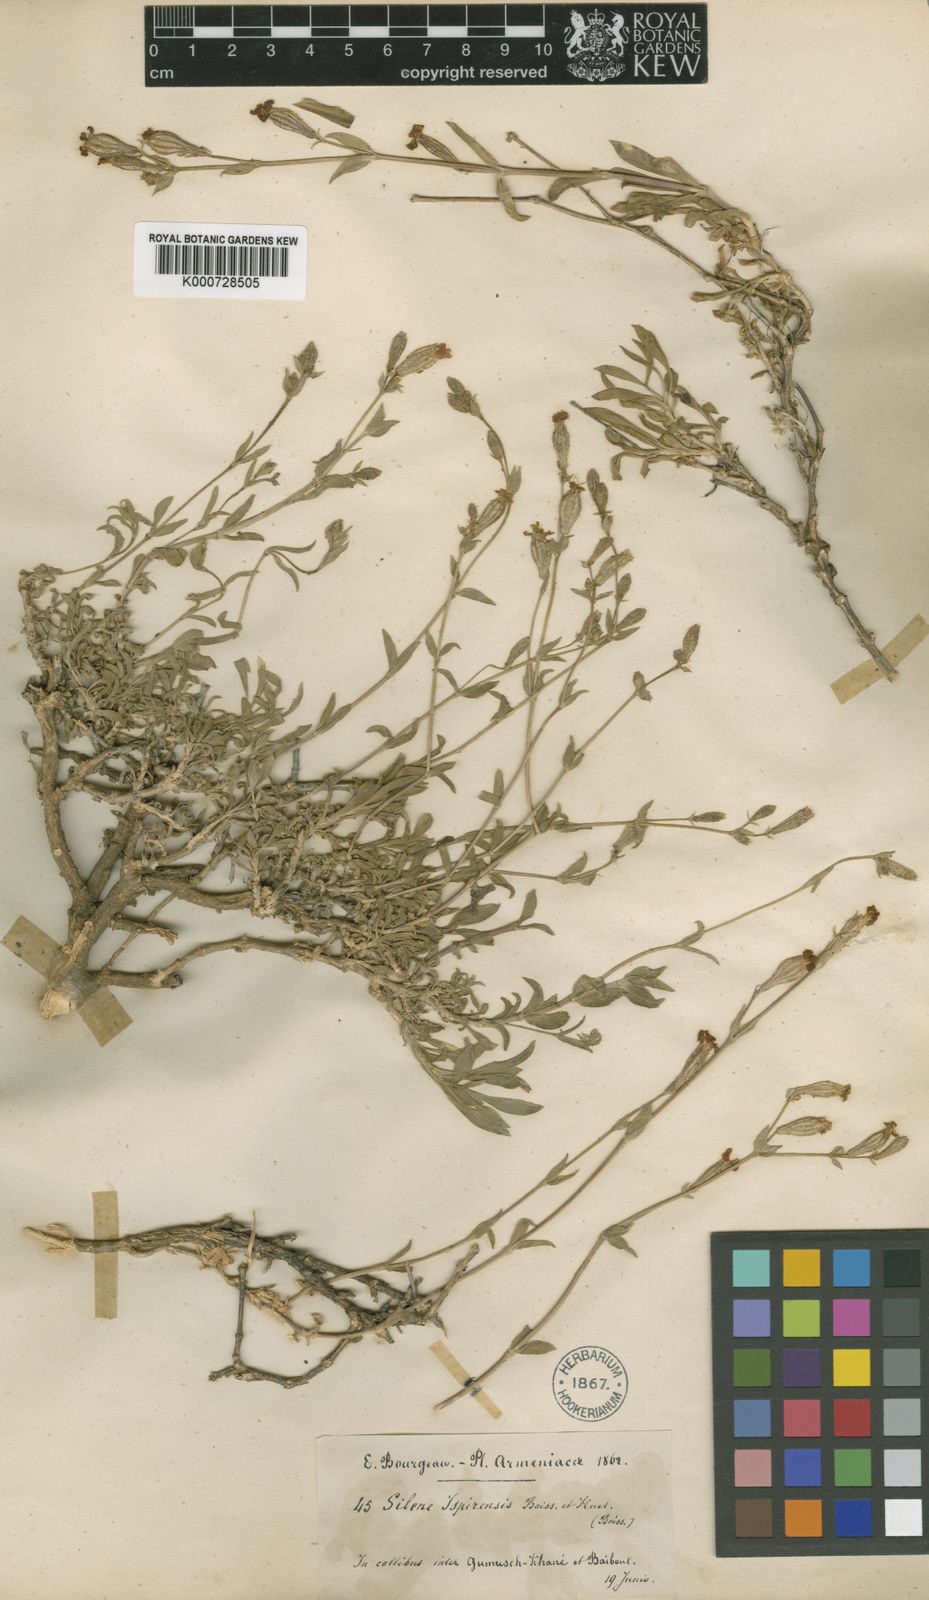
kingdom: Plantae
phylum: Tracheophyta
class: Magnoliopsida
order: Caryophyllales
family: Caryophyllaceae
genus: Silene
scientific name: Silene montbretiana
